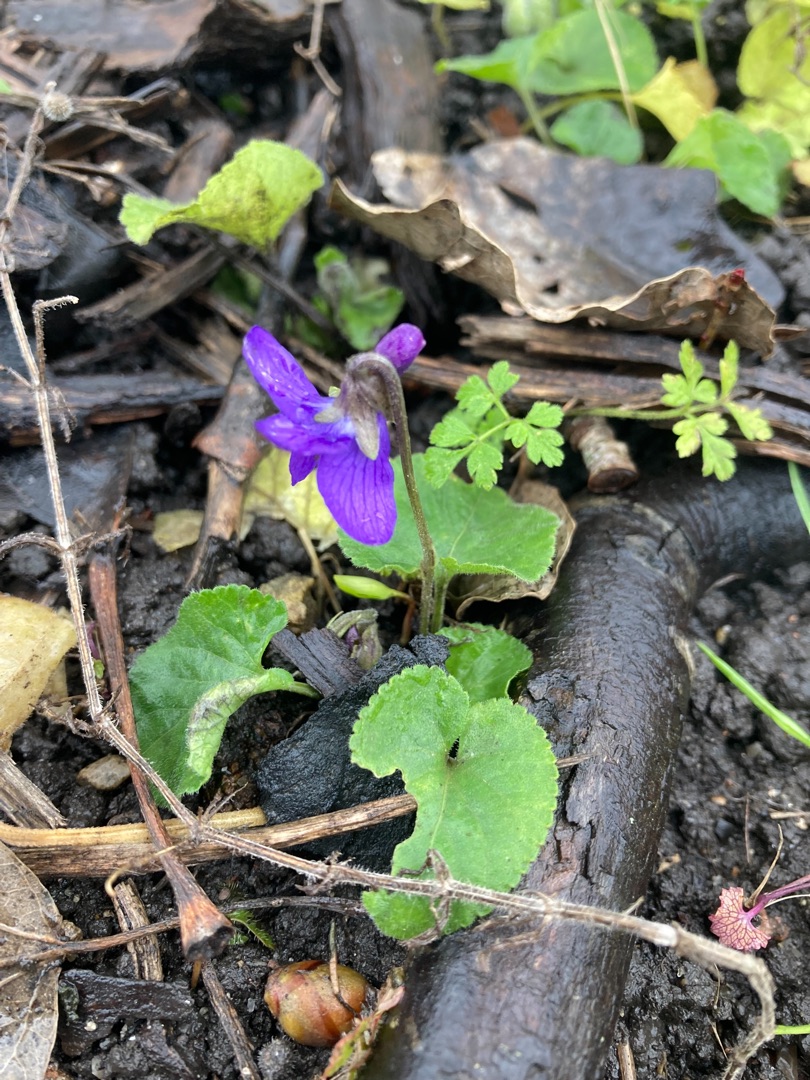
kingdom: Plantae
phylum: Tracheophyta
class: Magnoliopsida
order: Malpighiales
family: Violaceae
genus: Viola
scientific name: Viola odorata
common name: Marts-viol
